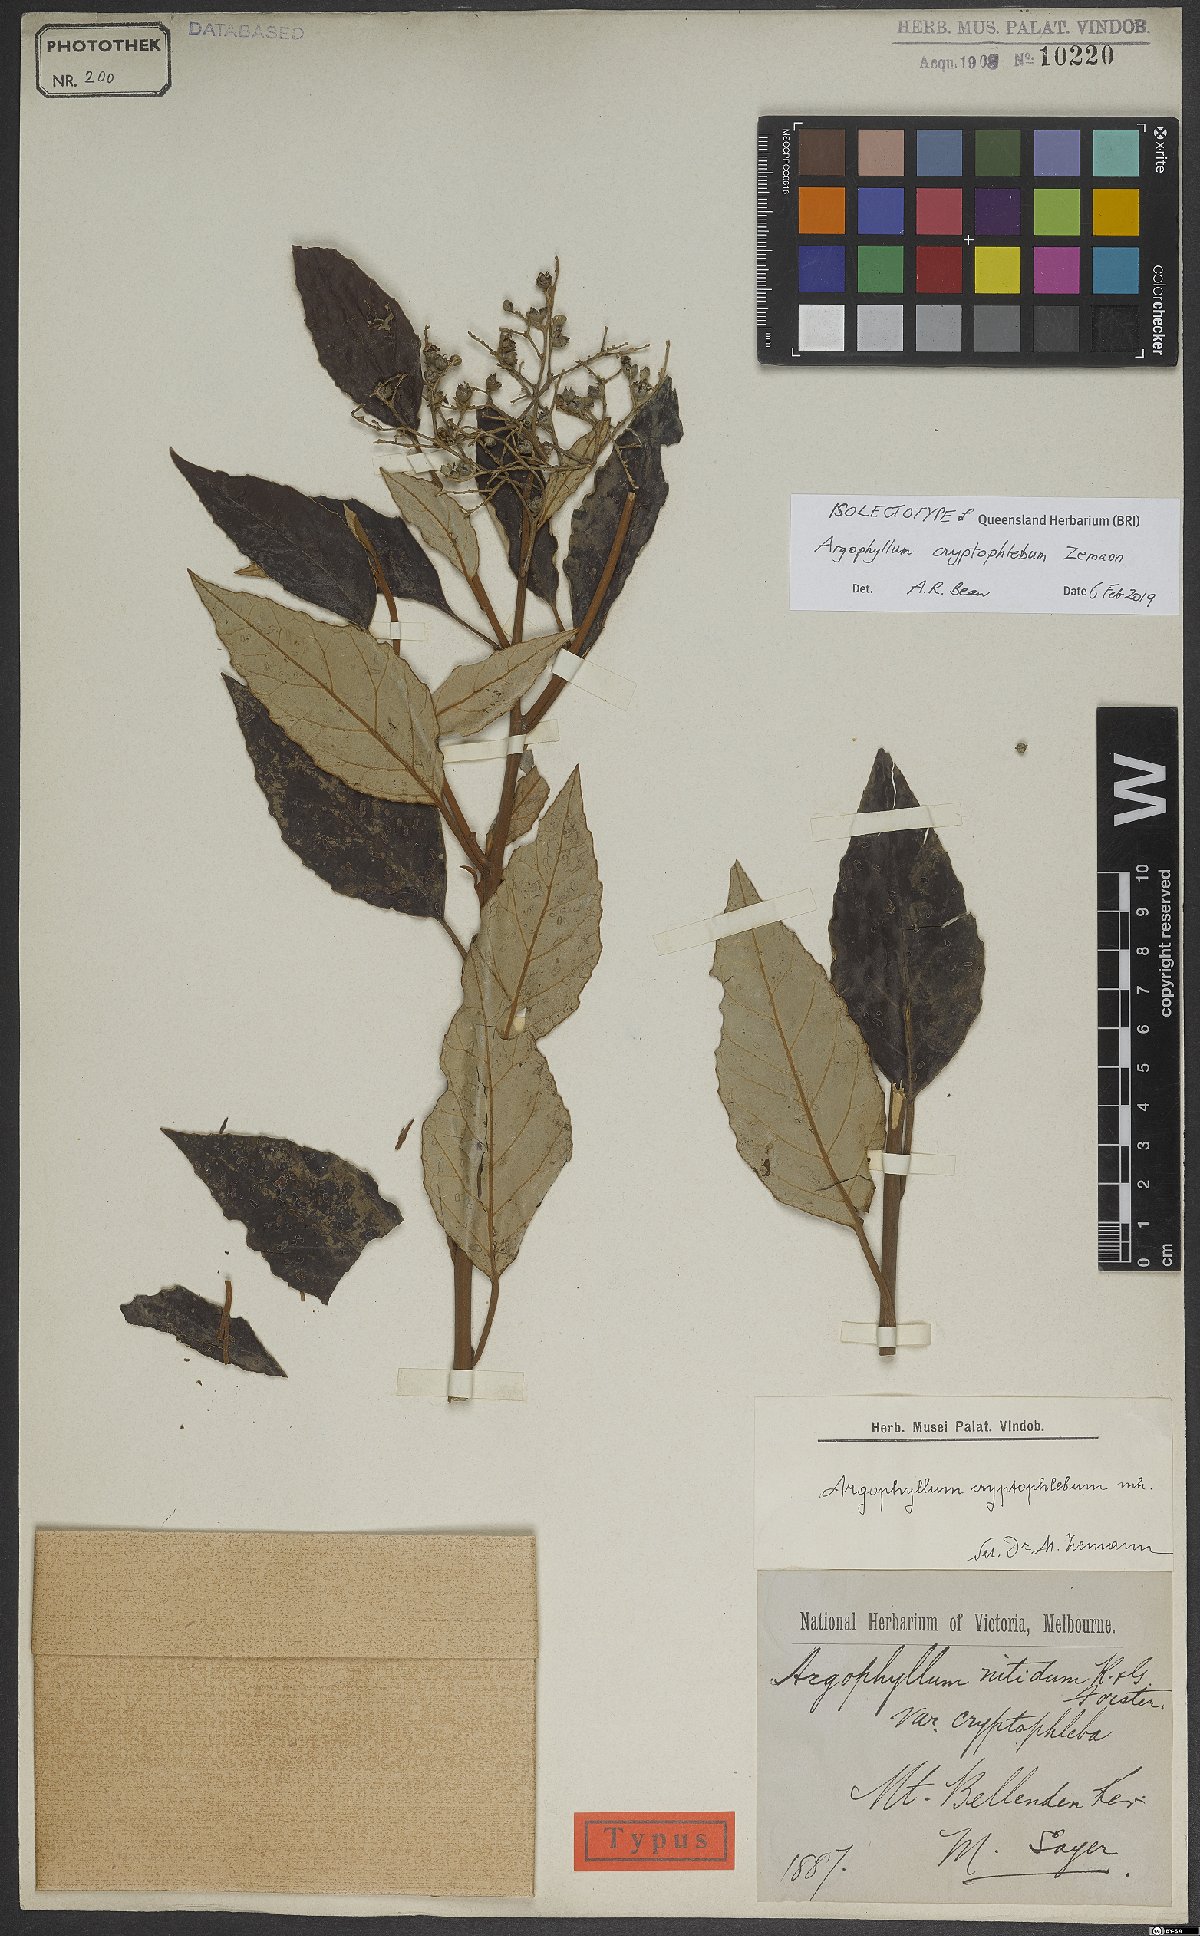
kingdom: Plantae
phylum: Tracheophyta
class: Magnoliopsida
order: Asterales
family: Argophyllaceae
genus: Argophyllum
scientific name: Argophyllum cryptophlebum
